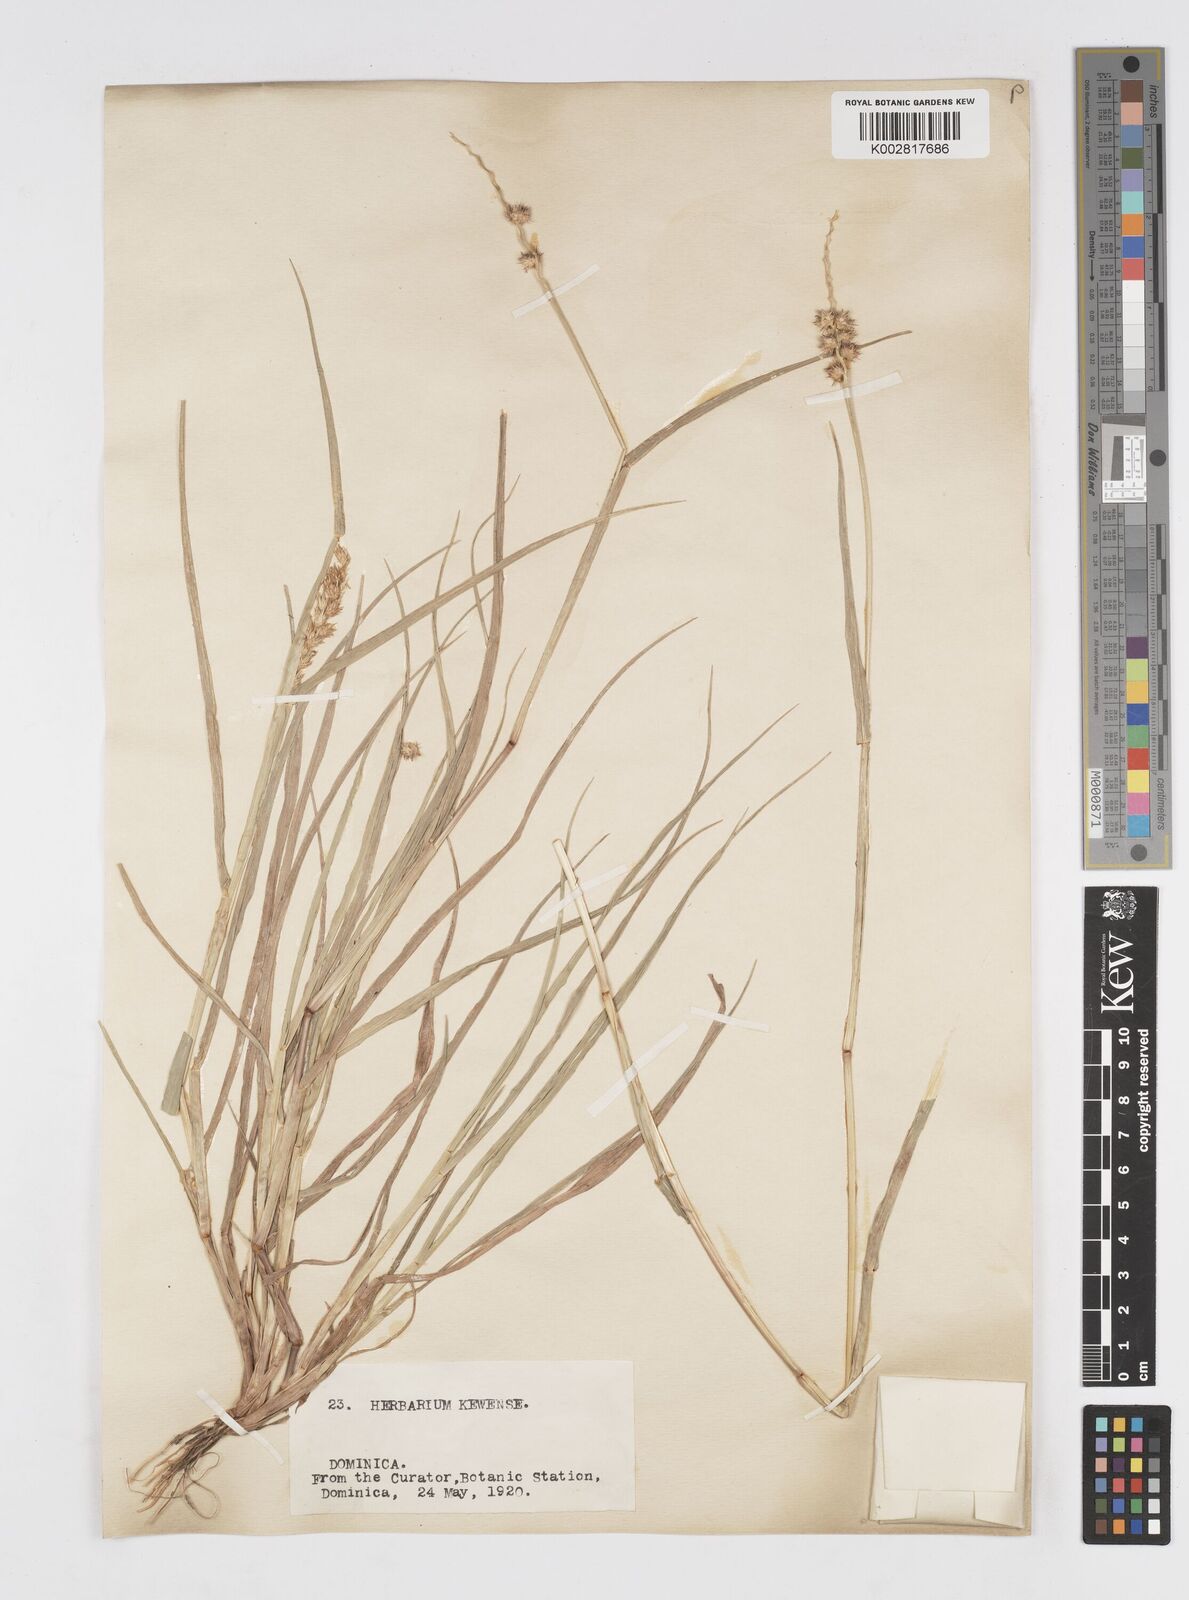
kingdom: Plantae
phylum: Tracheophyta
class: Liliopsida
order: Poales
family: Poaceae
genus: Cenchrus
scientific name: Cenchrus
